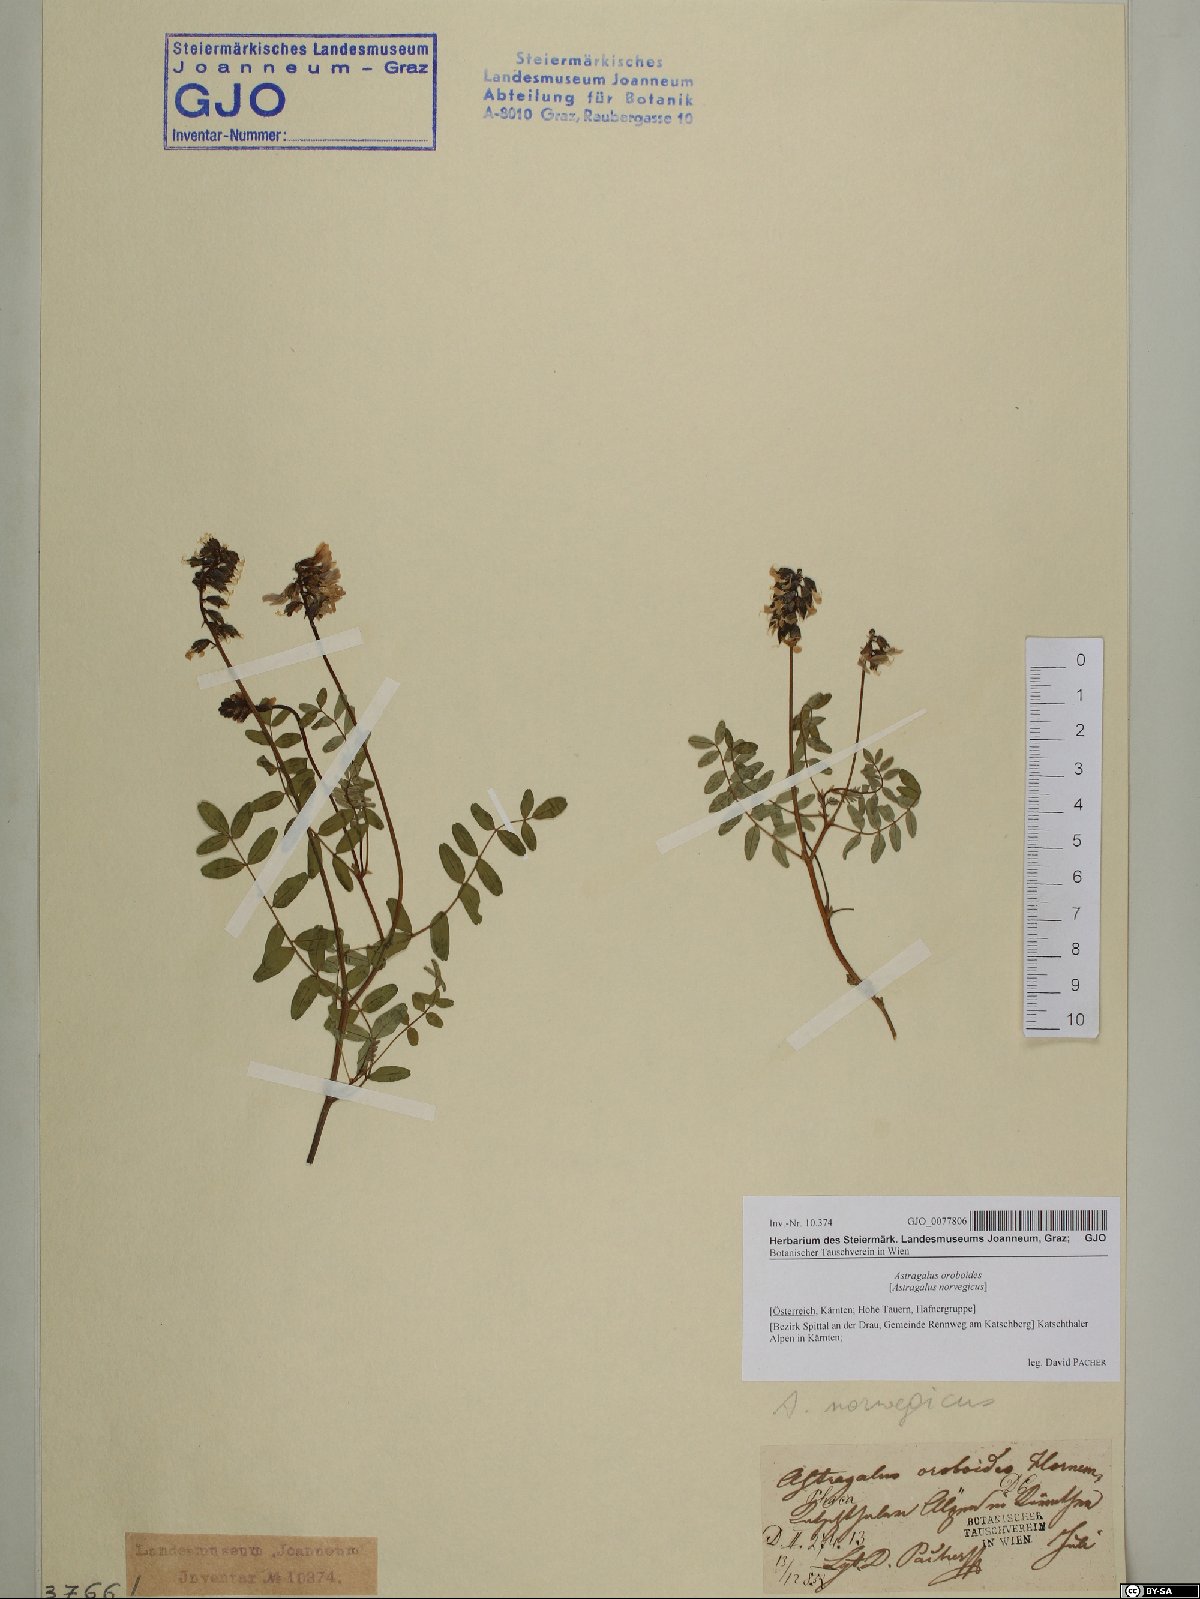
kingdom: Plantae
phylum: Tracheophyta
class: Magnoliopsida
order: Fabales
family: Fabaceae
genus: Astragalus
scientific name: Astragalus norvegicus
